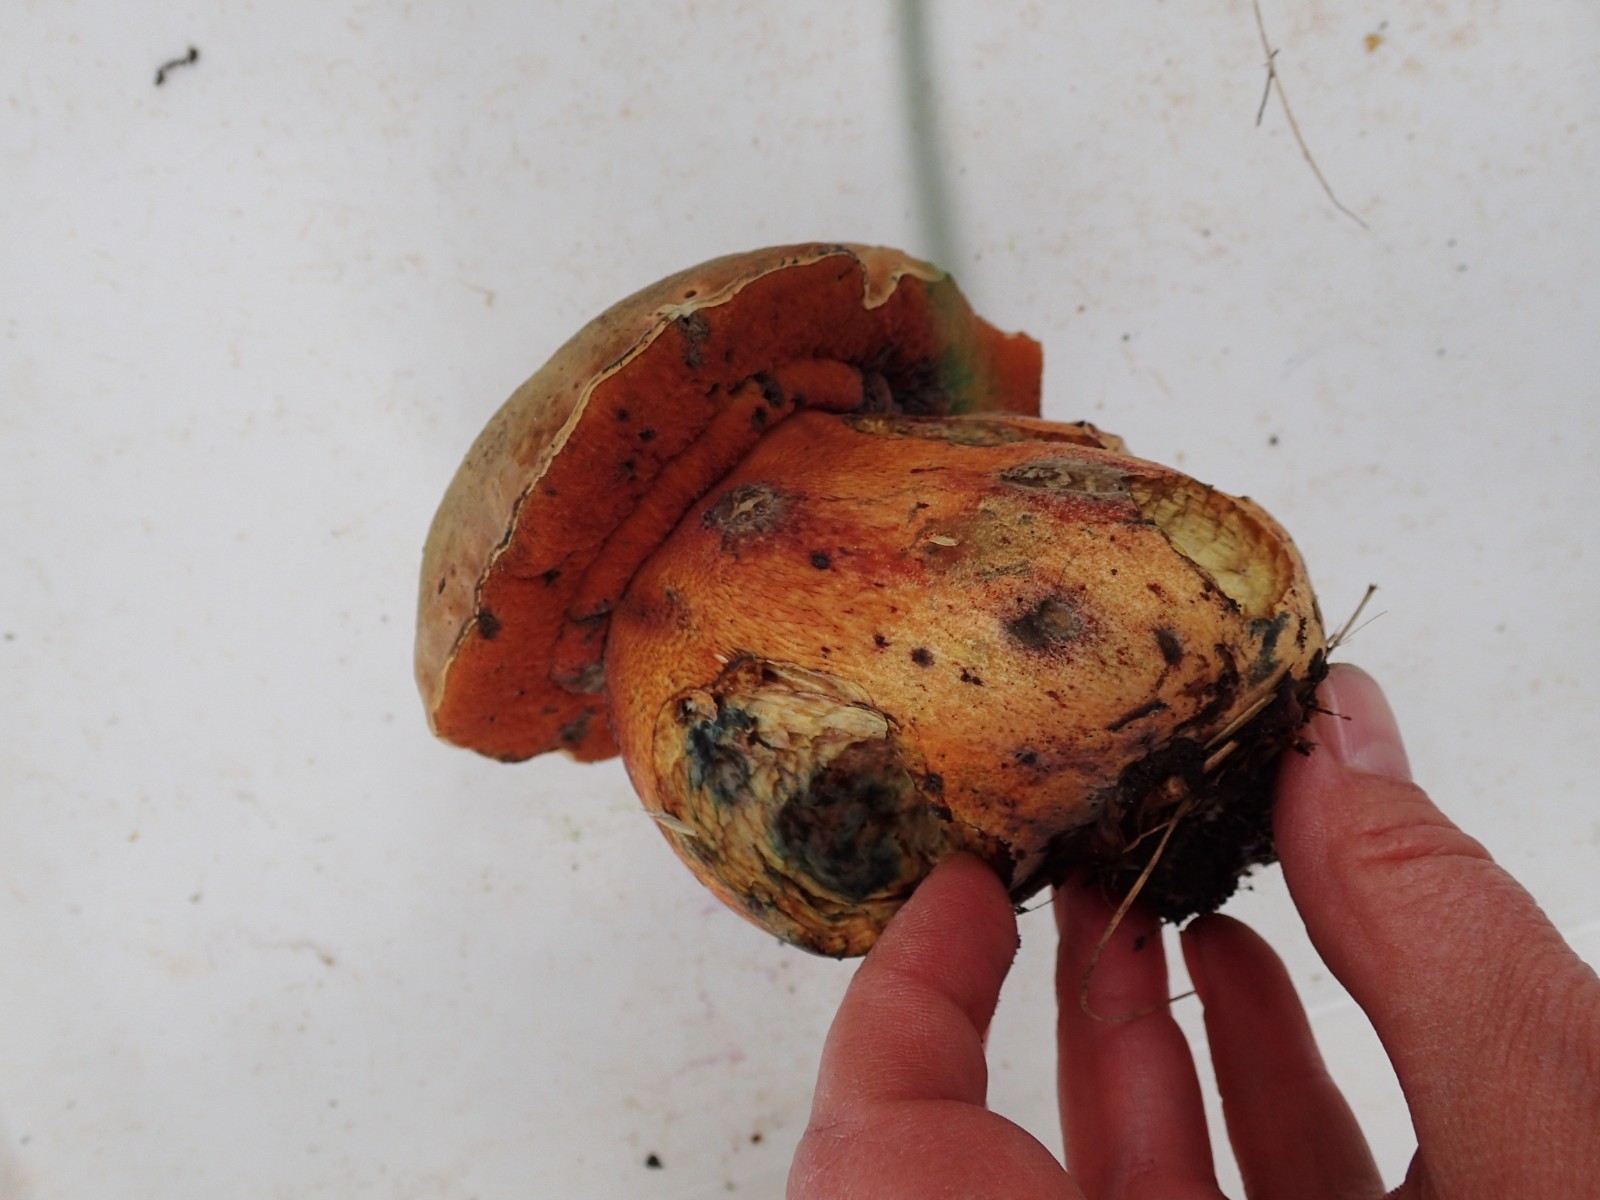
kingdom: Fungi
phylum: Basidiomycota
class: Agaricomycetes
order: Boletales
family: Boletaceae
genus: Suillellus
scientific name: Suillellus luridus
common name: netstokket indigorørhat
